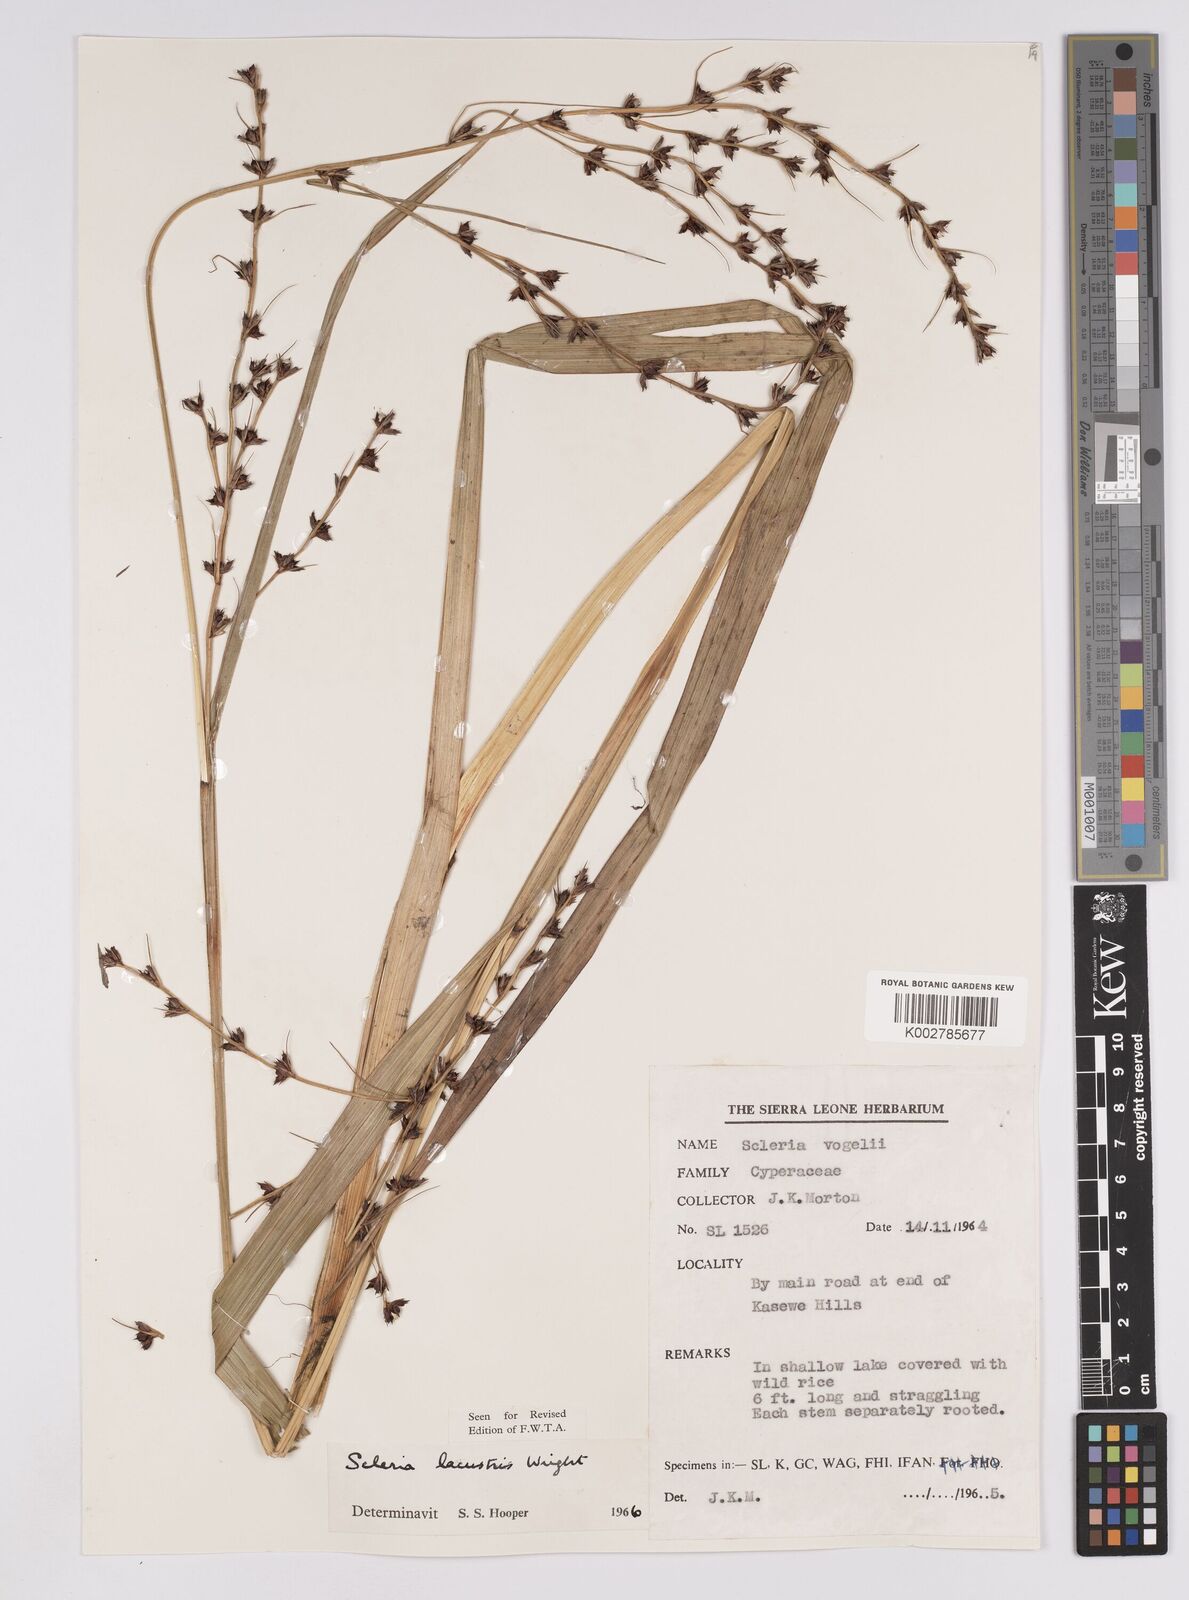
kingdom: Plantae
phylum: Tracheophyta
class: Liliopsida
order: Poales
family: Cyperaceae
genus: Scleria
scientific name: Scleria lacustris
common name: Lakeshore nutrush
